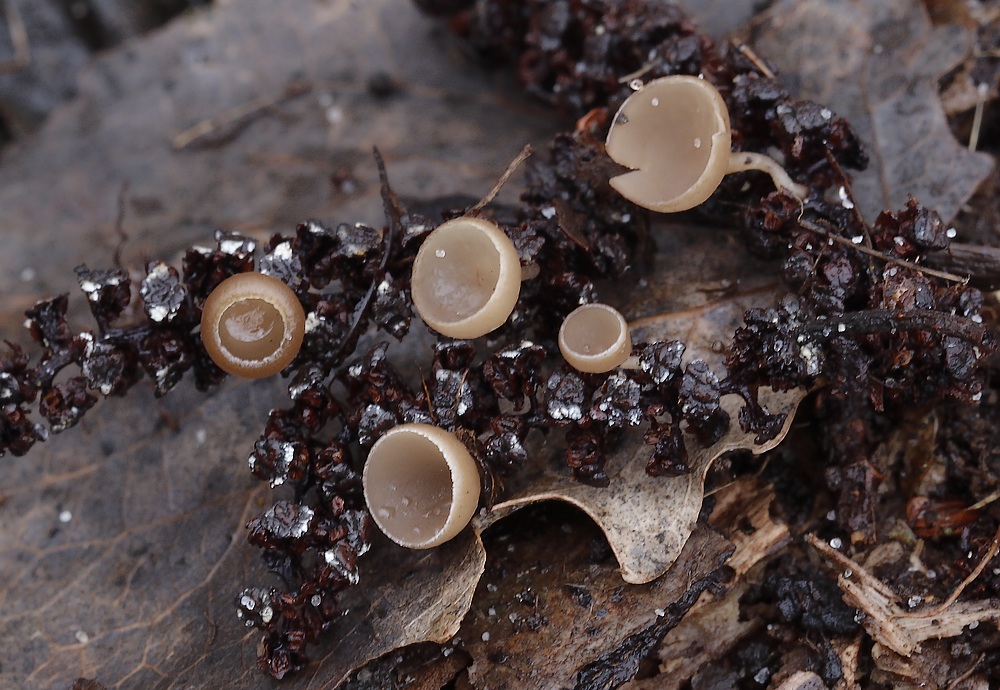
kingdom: Fungi
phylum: Ascomycota
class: Leotiomycetes
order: Helotiales
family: Sclerotiniaceae
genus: Ciboria
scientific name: Ciboria amentacea
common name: ellerakle-knoldskive
